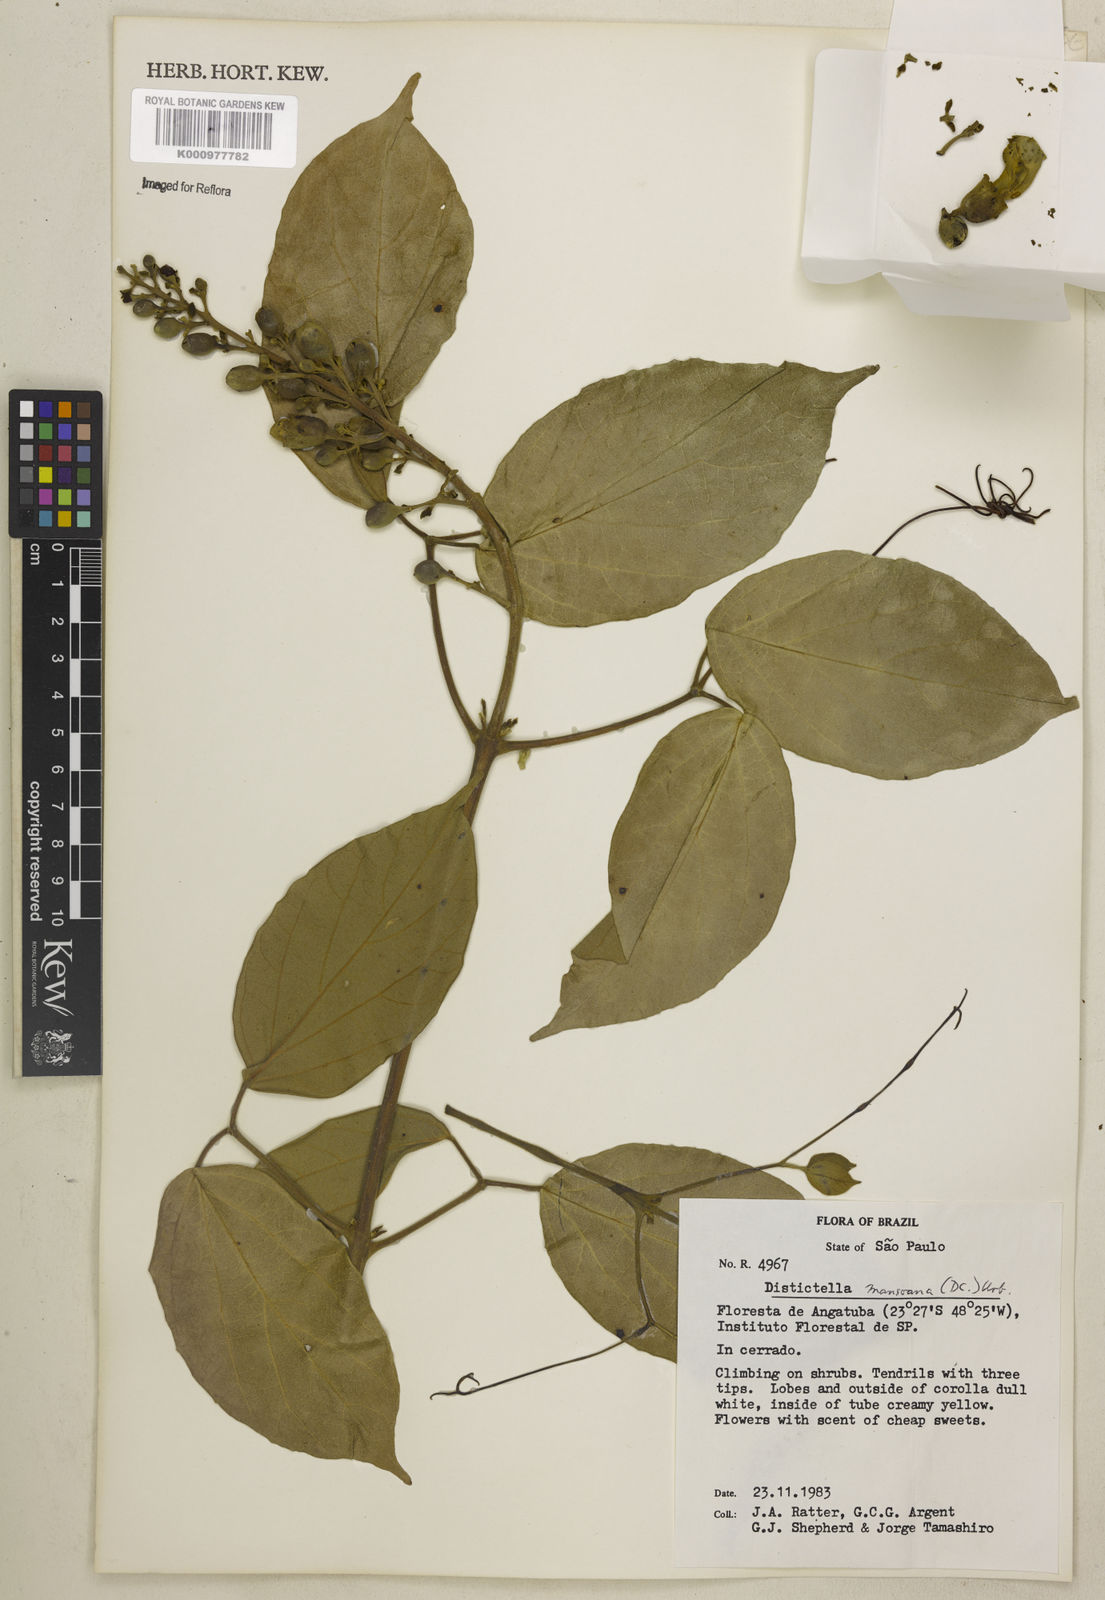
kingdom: Plantae
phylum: Tracheophyta
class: Magnoliopsida
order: Lamiales
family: Bignoniaceae
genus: Amphilophium
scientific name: Amphilophium mansoanum
